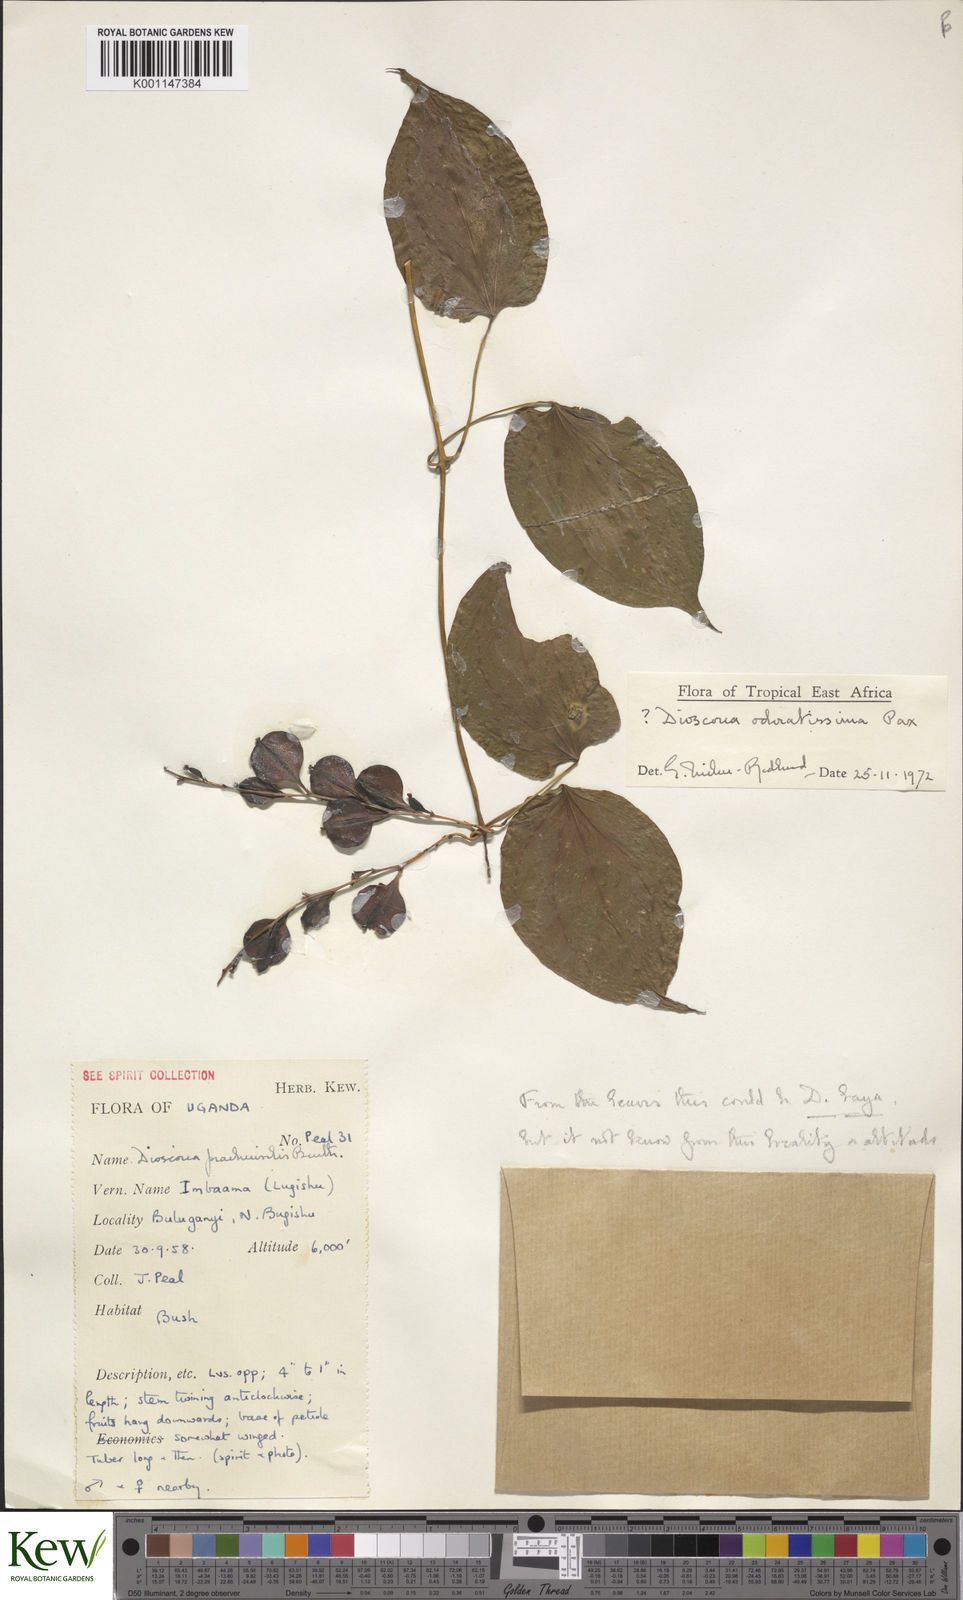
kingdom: Plantae
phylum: Tracheophyta
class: Liliopsida
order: Dioscoreales
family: Dioscoreaceae
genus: Dioscorea
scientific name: Dioscorea praehensilis
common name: Bush yam
